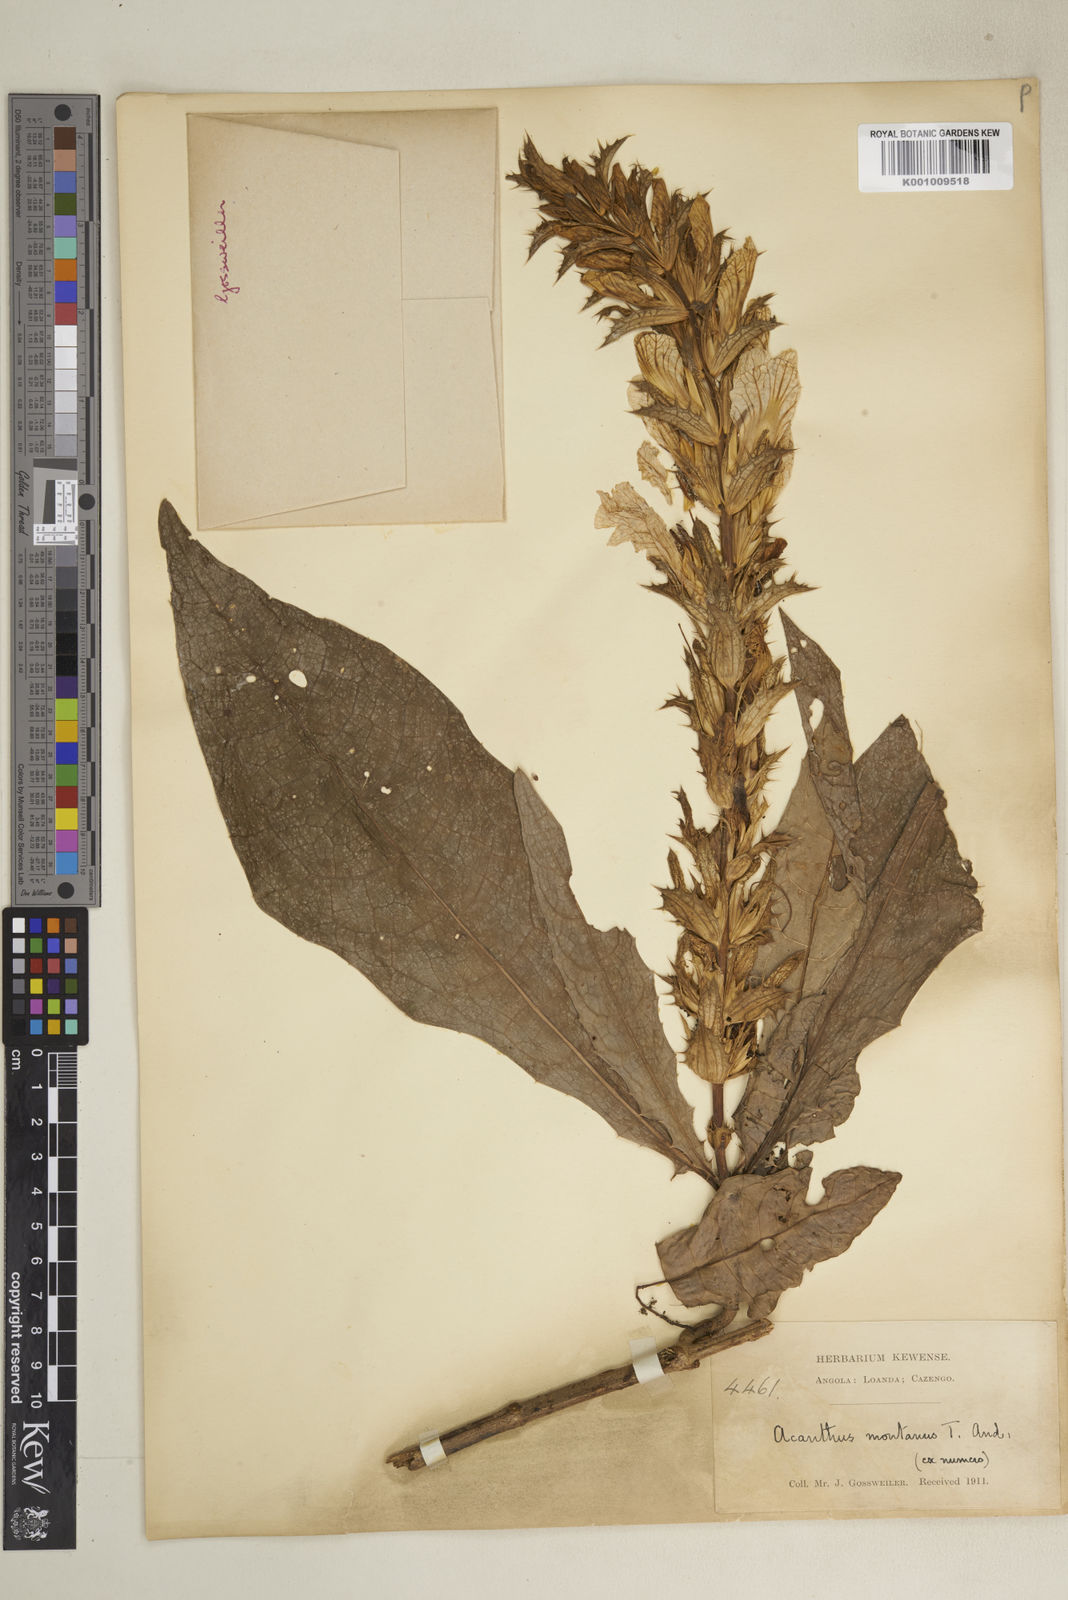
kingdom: Plantae
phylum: Tracheophyta
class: Magnoliopsida
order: Lamiales
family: Acanthaceae
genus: Acanthus
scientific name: Acanthus montanus
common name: Mountain thistle
